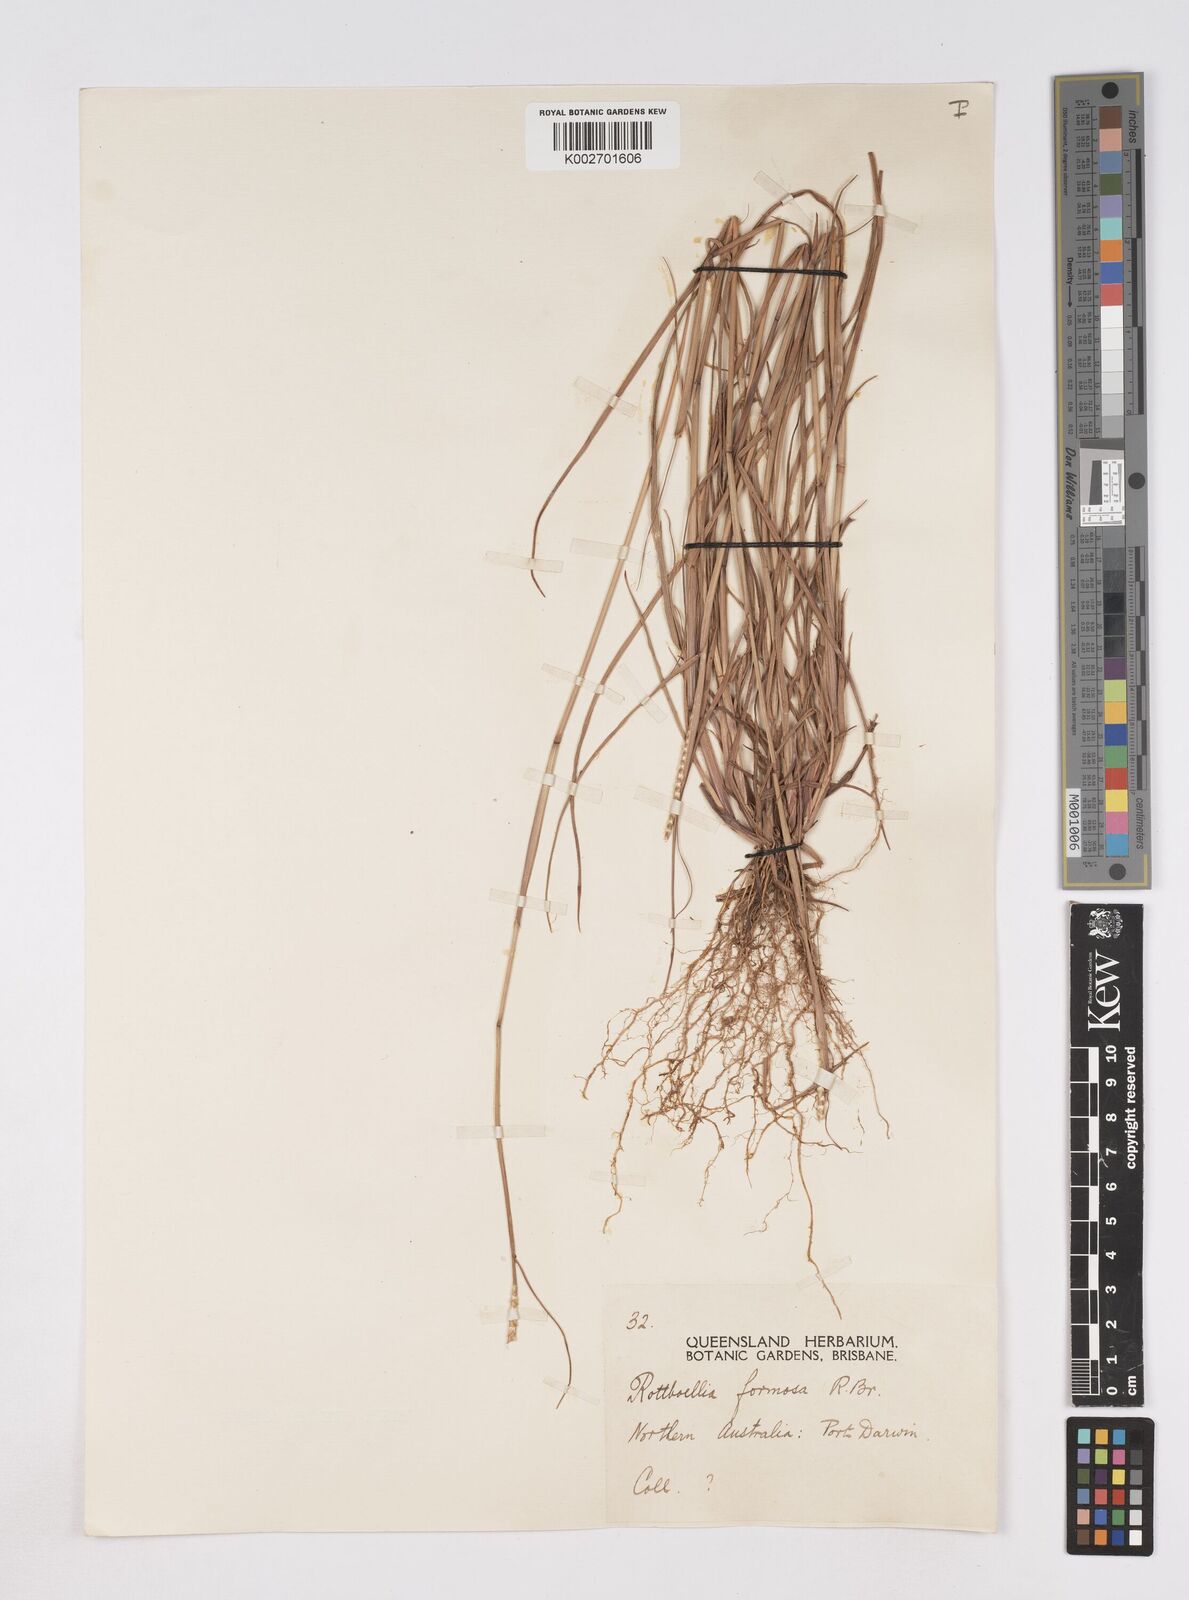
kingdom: Plantae
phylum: Tracheophyta
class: Liliopsida
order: Poales
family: Poaceae
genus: Heteropholis
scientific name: Heteropholis
